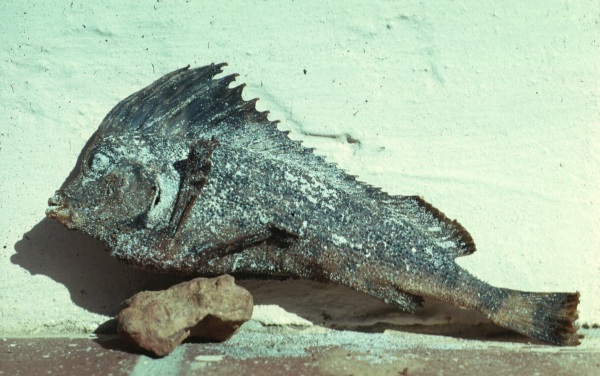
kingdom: Animalia
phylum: Chordata
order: Scorpaeniformes
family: Congiopodidae
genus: Congiopodus
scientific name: Congiopodus spinifer
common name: Spinenose horsefish
